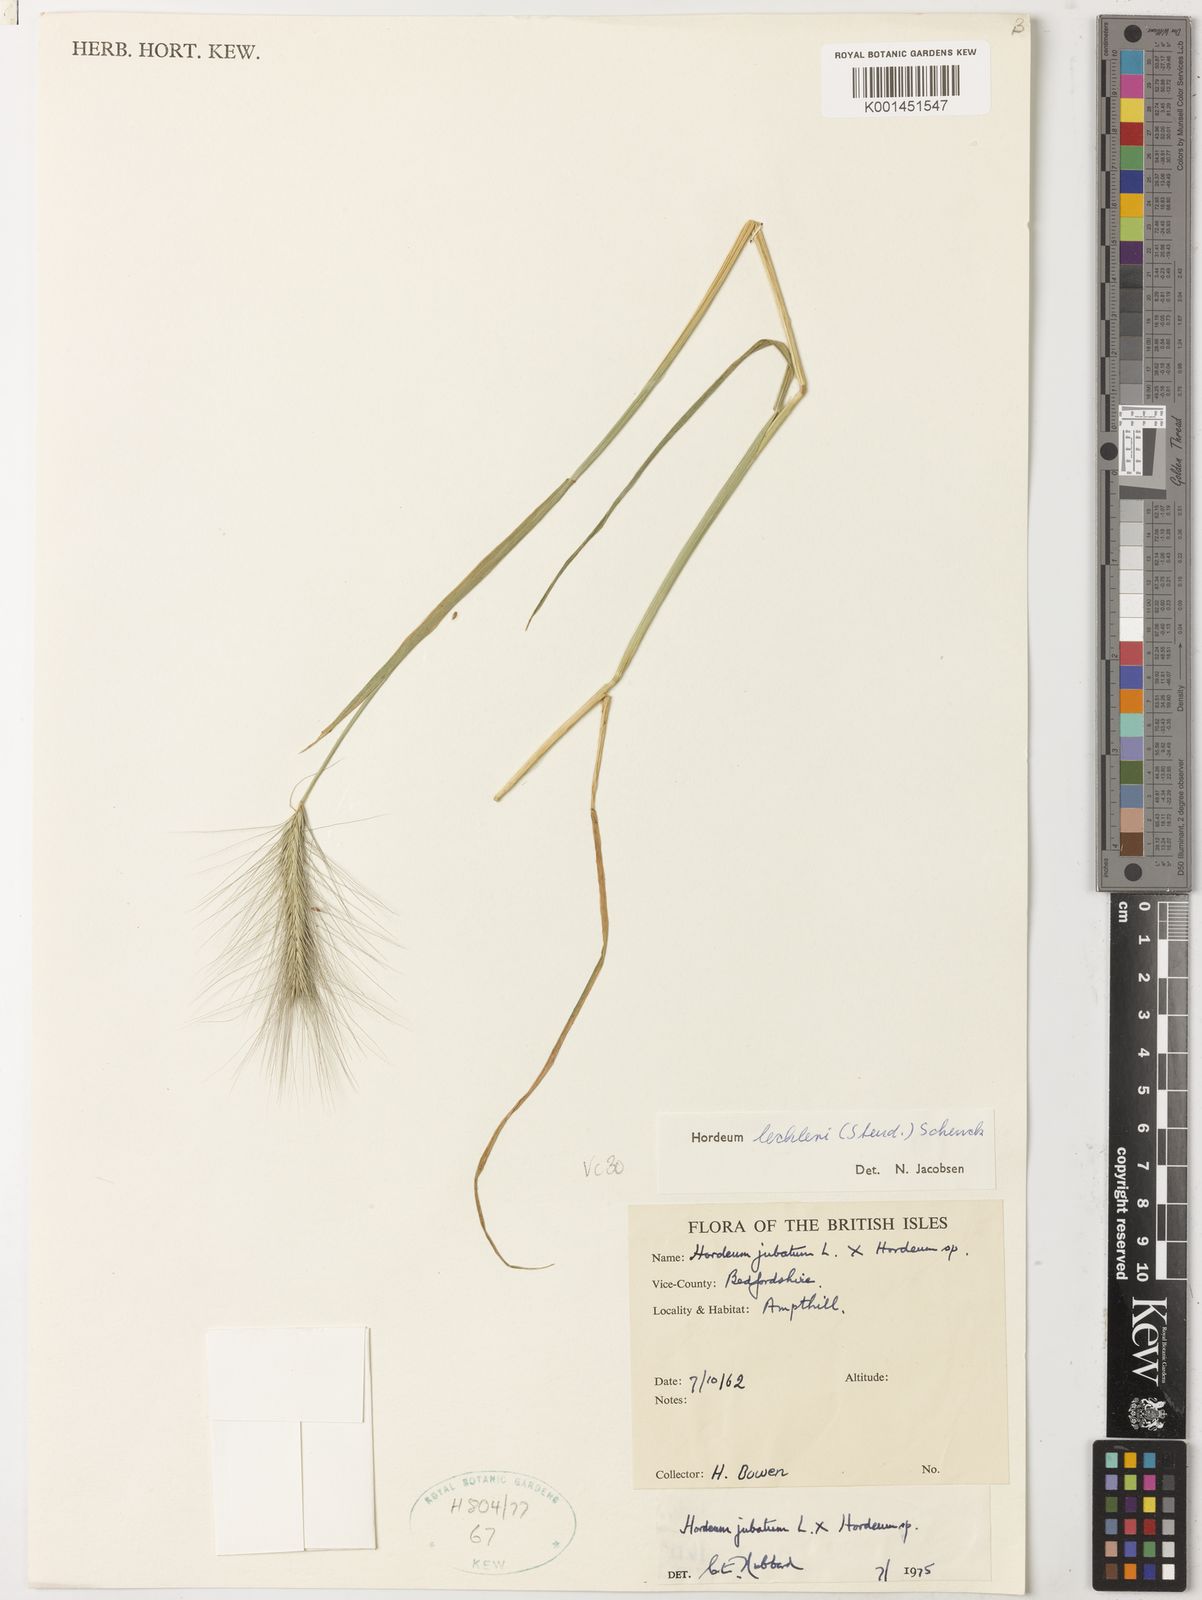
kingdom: Plantae
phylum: Tracheophyta
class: Liliopsida
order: Poales
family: Poaceae
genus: Hordeum
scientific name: Hordeum lechleri
